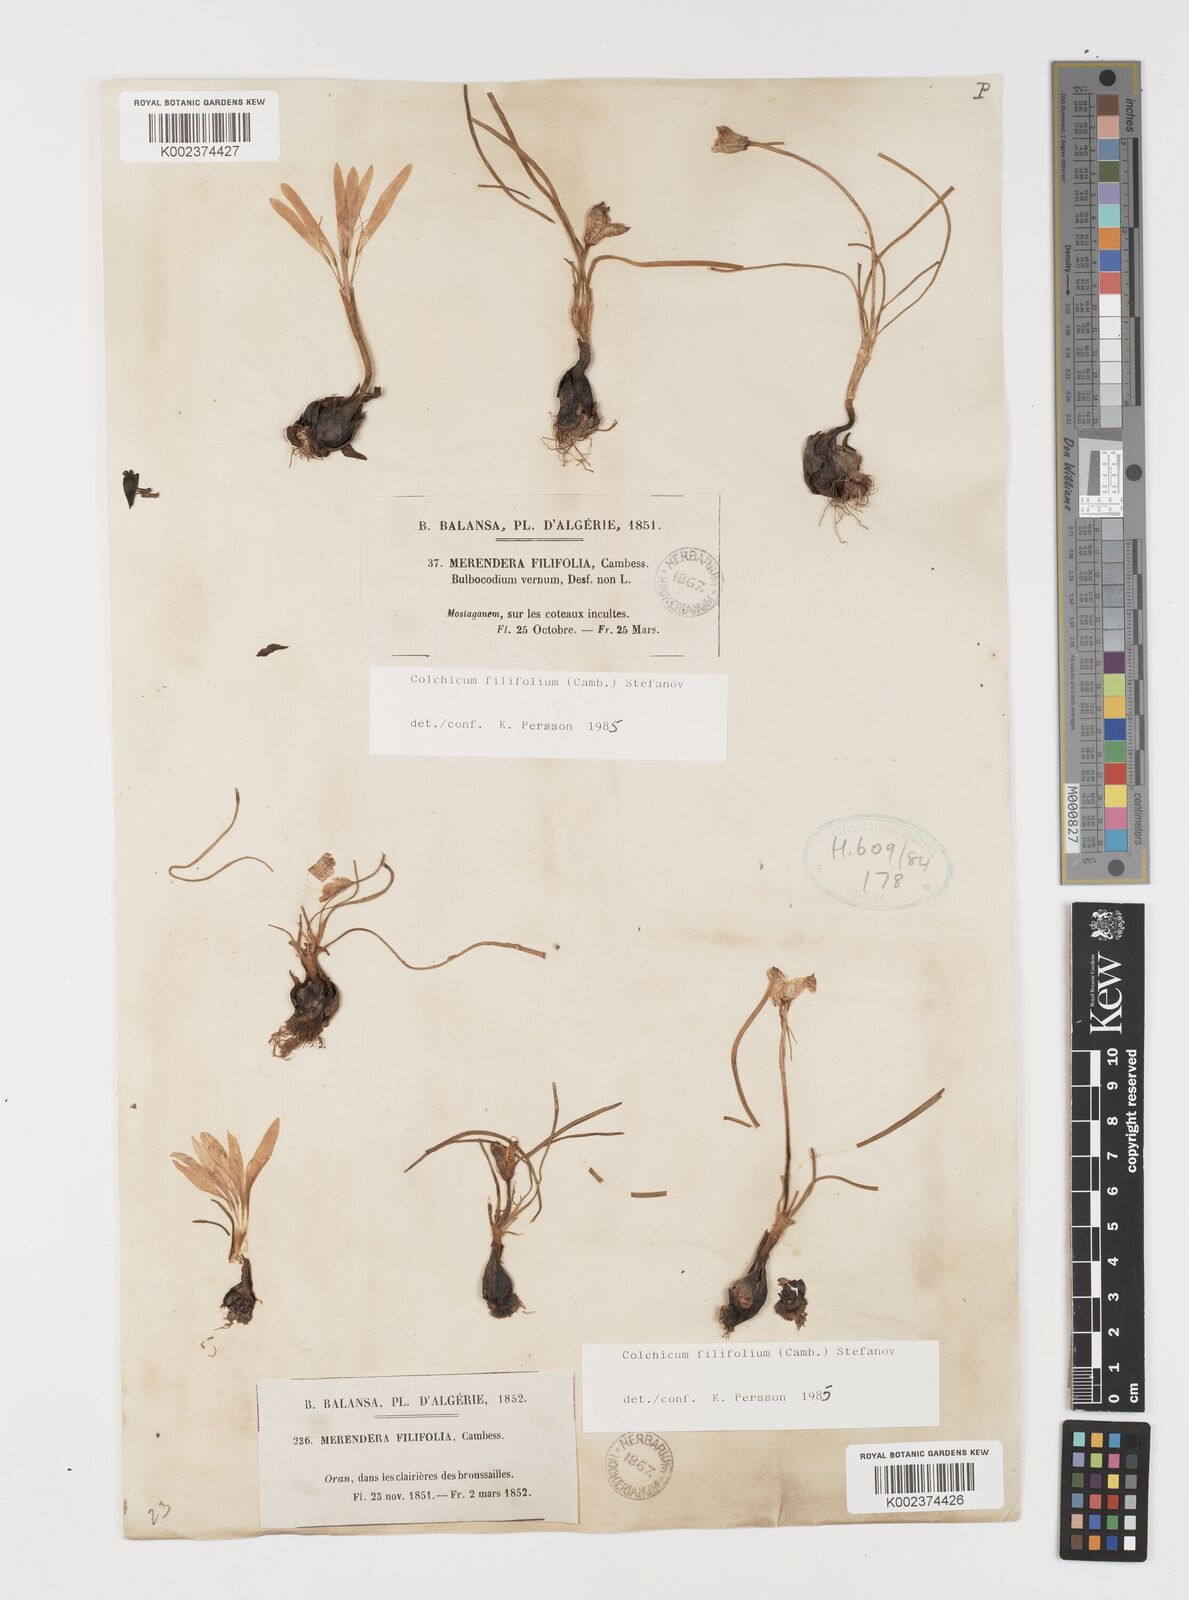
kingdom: Plantae
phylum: Tracheophyta
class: Liliopsida
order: Liliales
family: Colchicaceae
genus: Colchicum
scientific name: Colchicum filifolium
